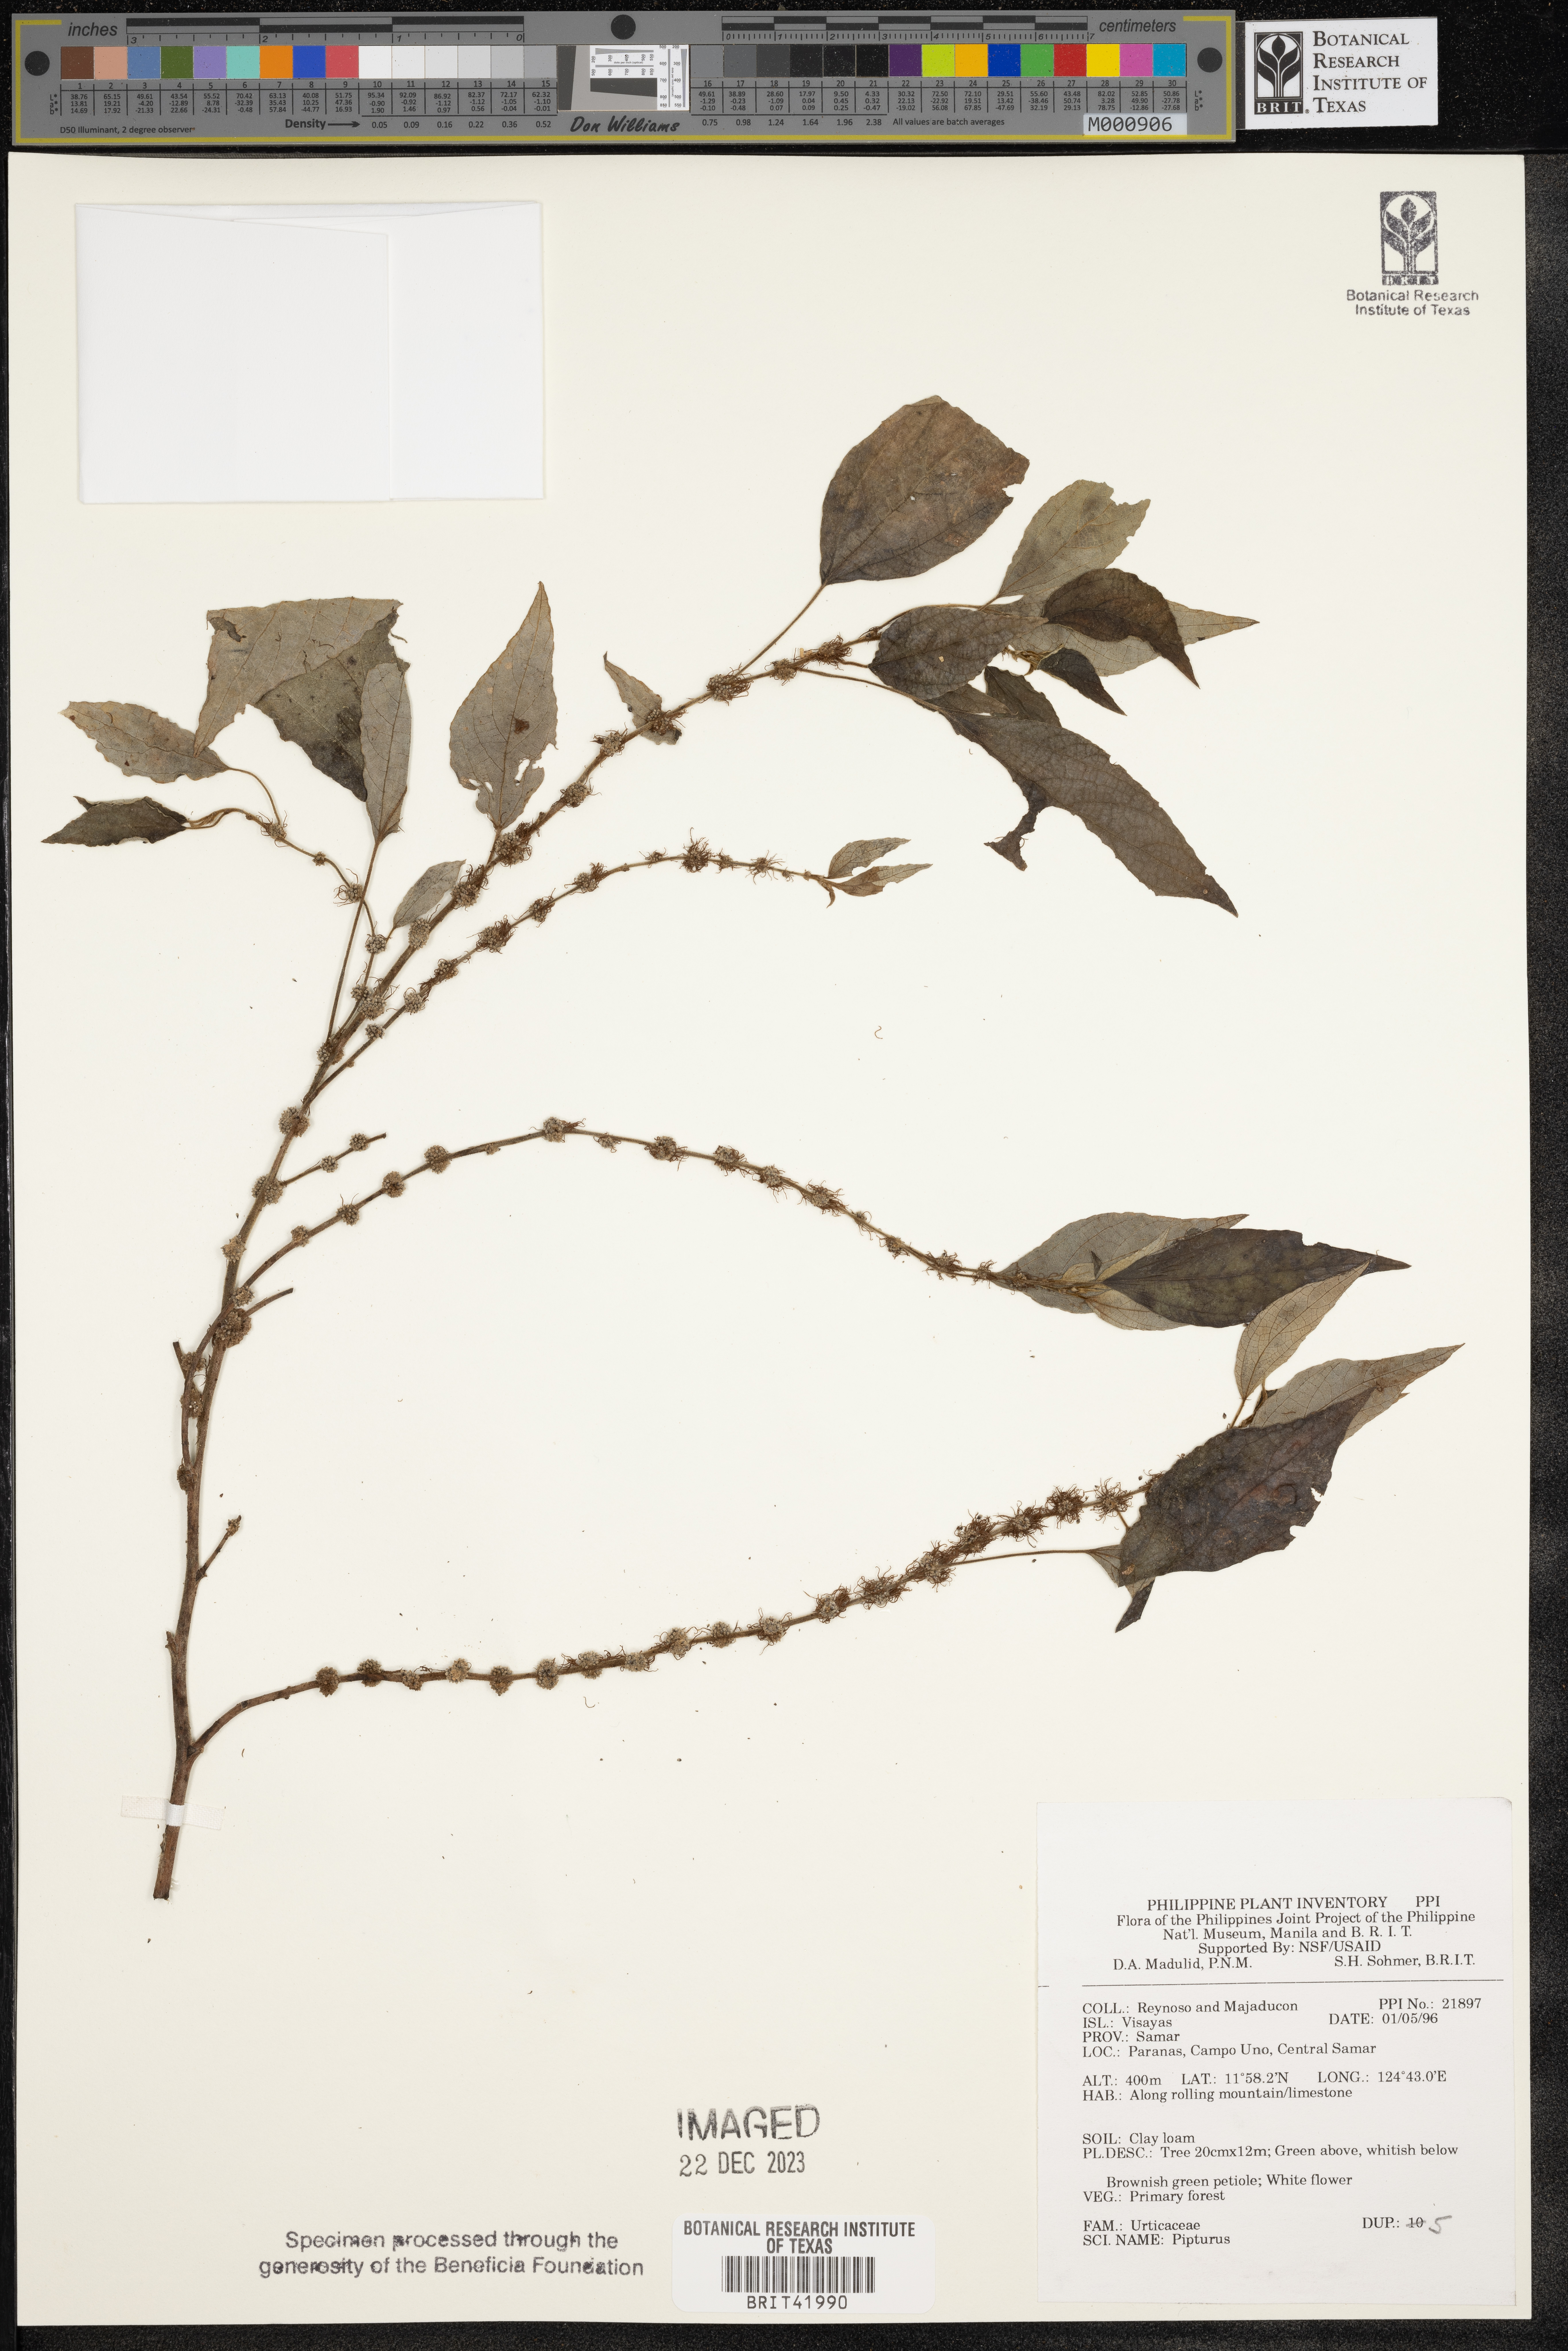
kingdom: Plantae
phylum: Tracheophyta
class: Magnoliopsida
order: Rosales
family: Urticaceae
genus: Pipturus
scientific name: Pipturus
